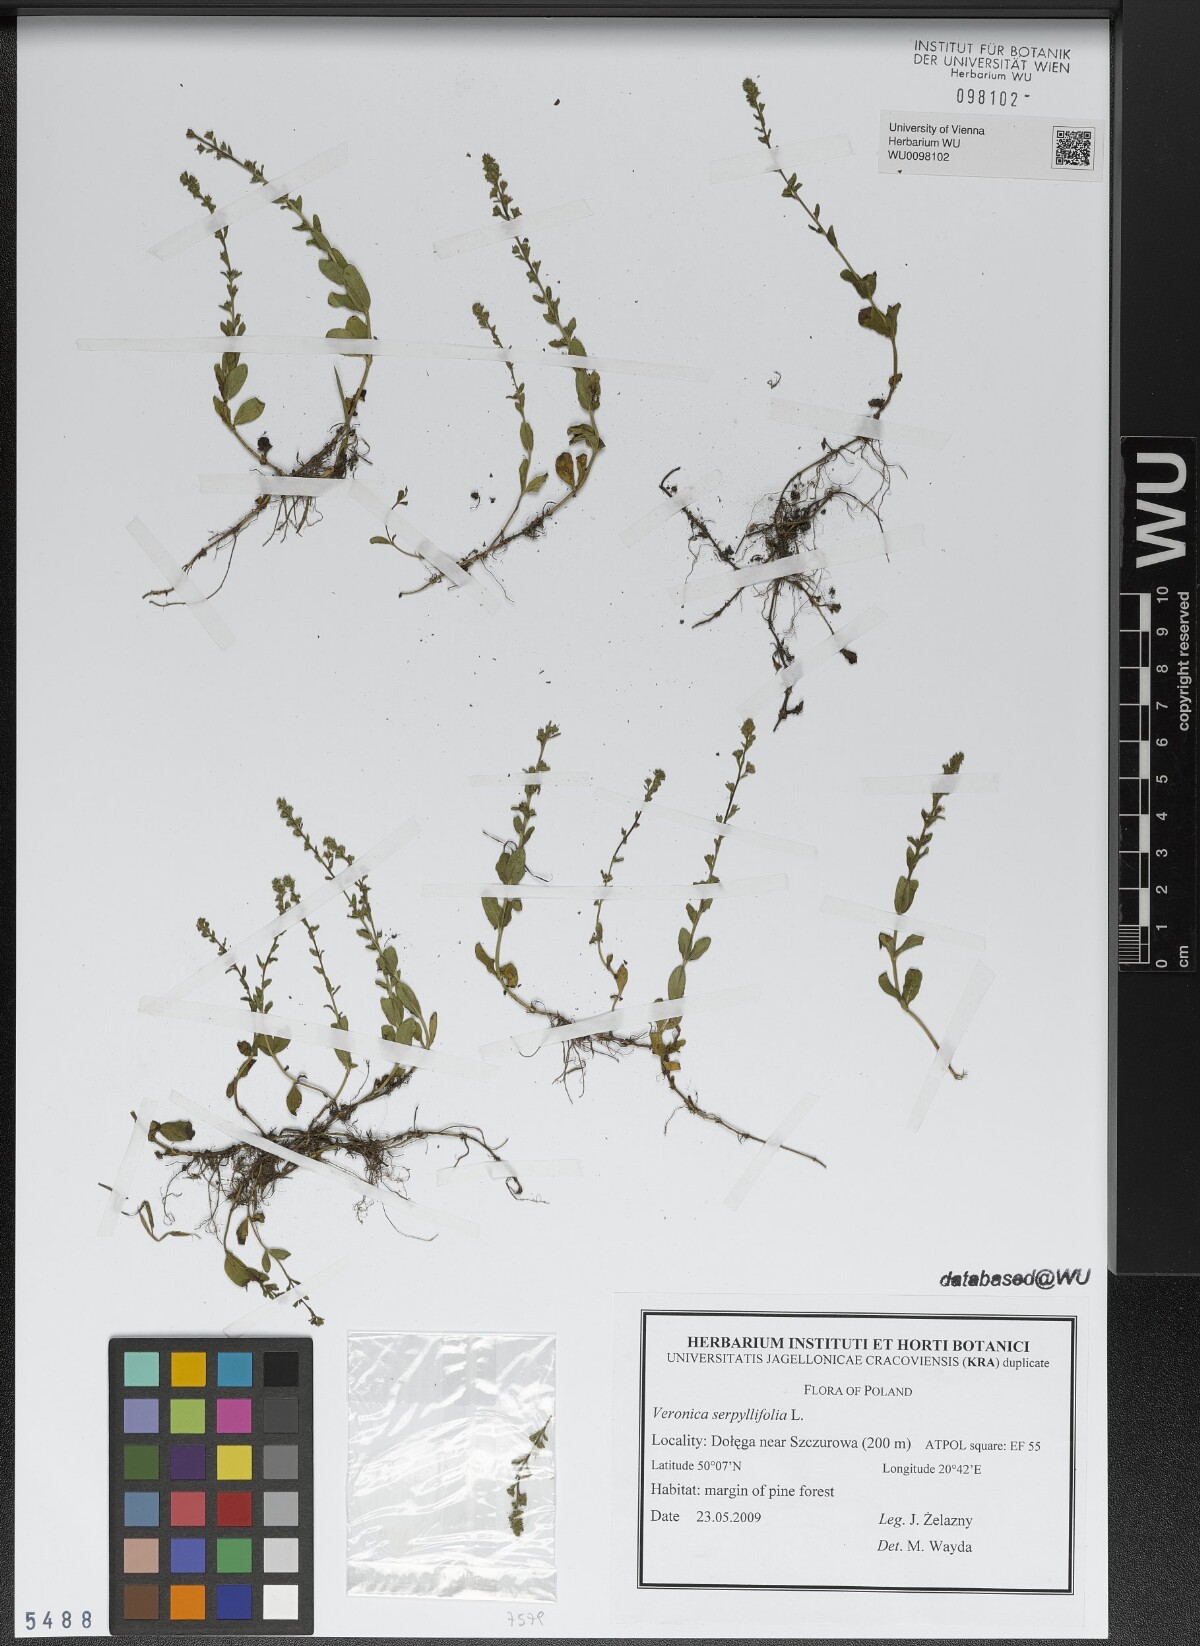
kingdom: Plantae
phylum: Tracheophyta
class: Magnoliopsida
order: Lamiales
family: Plantaginaceae
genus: Veronica
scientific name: Veronica serpyllifolia
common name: Thyme-leaved speedwell
